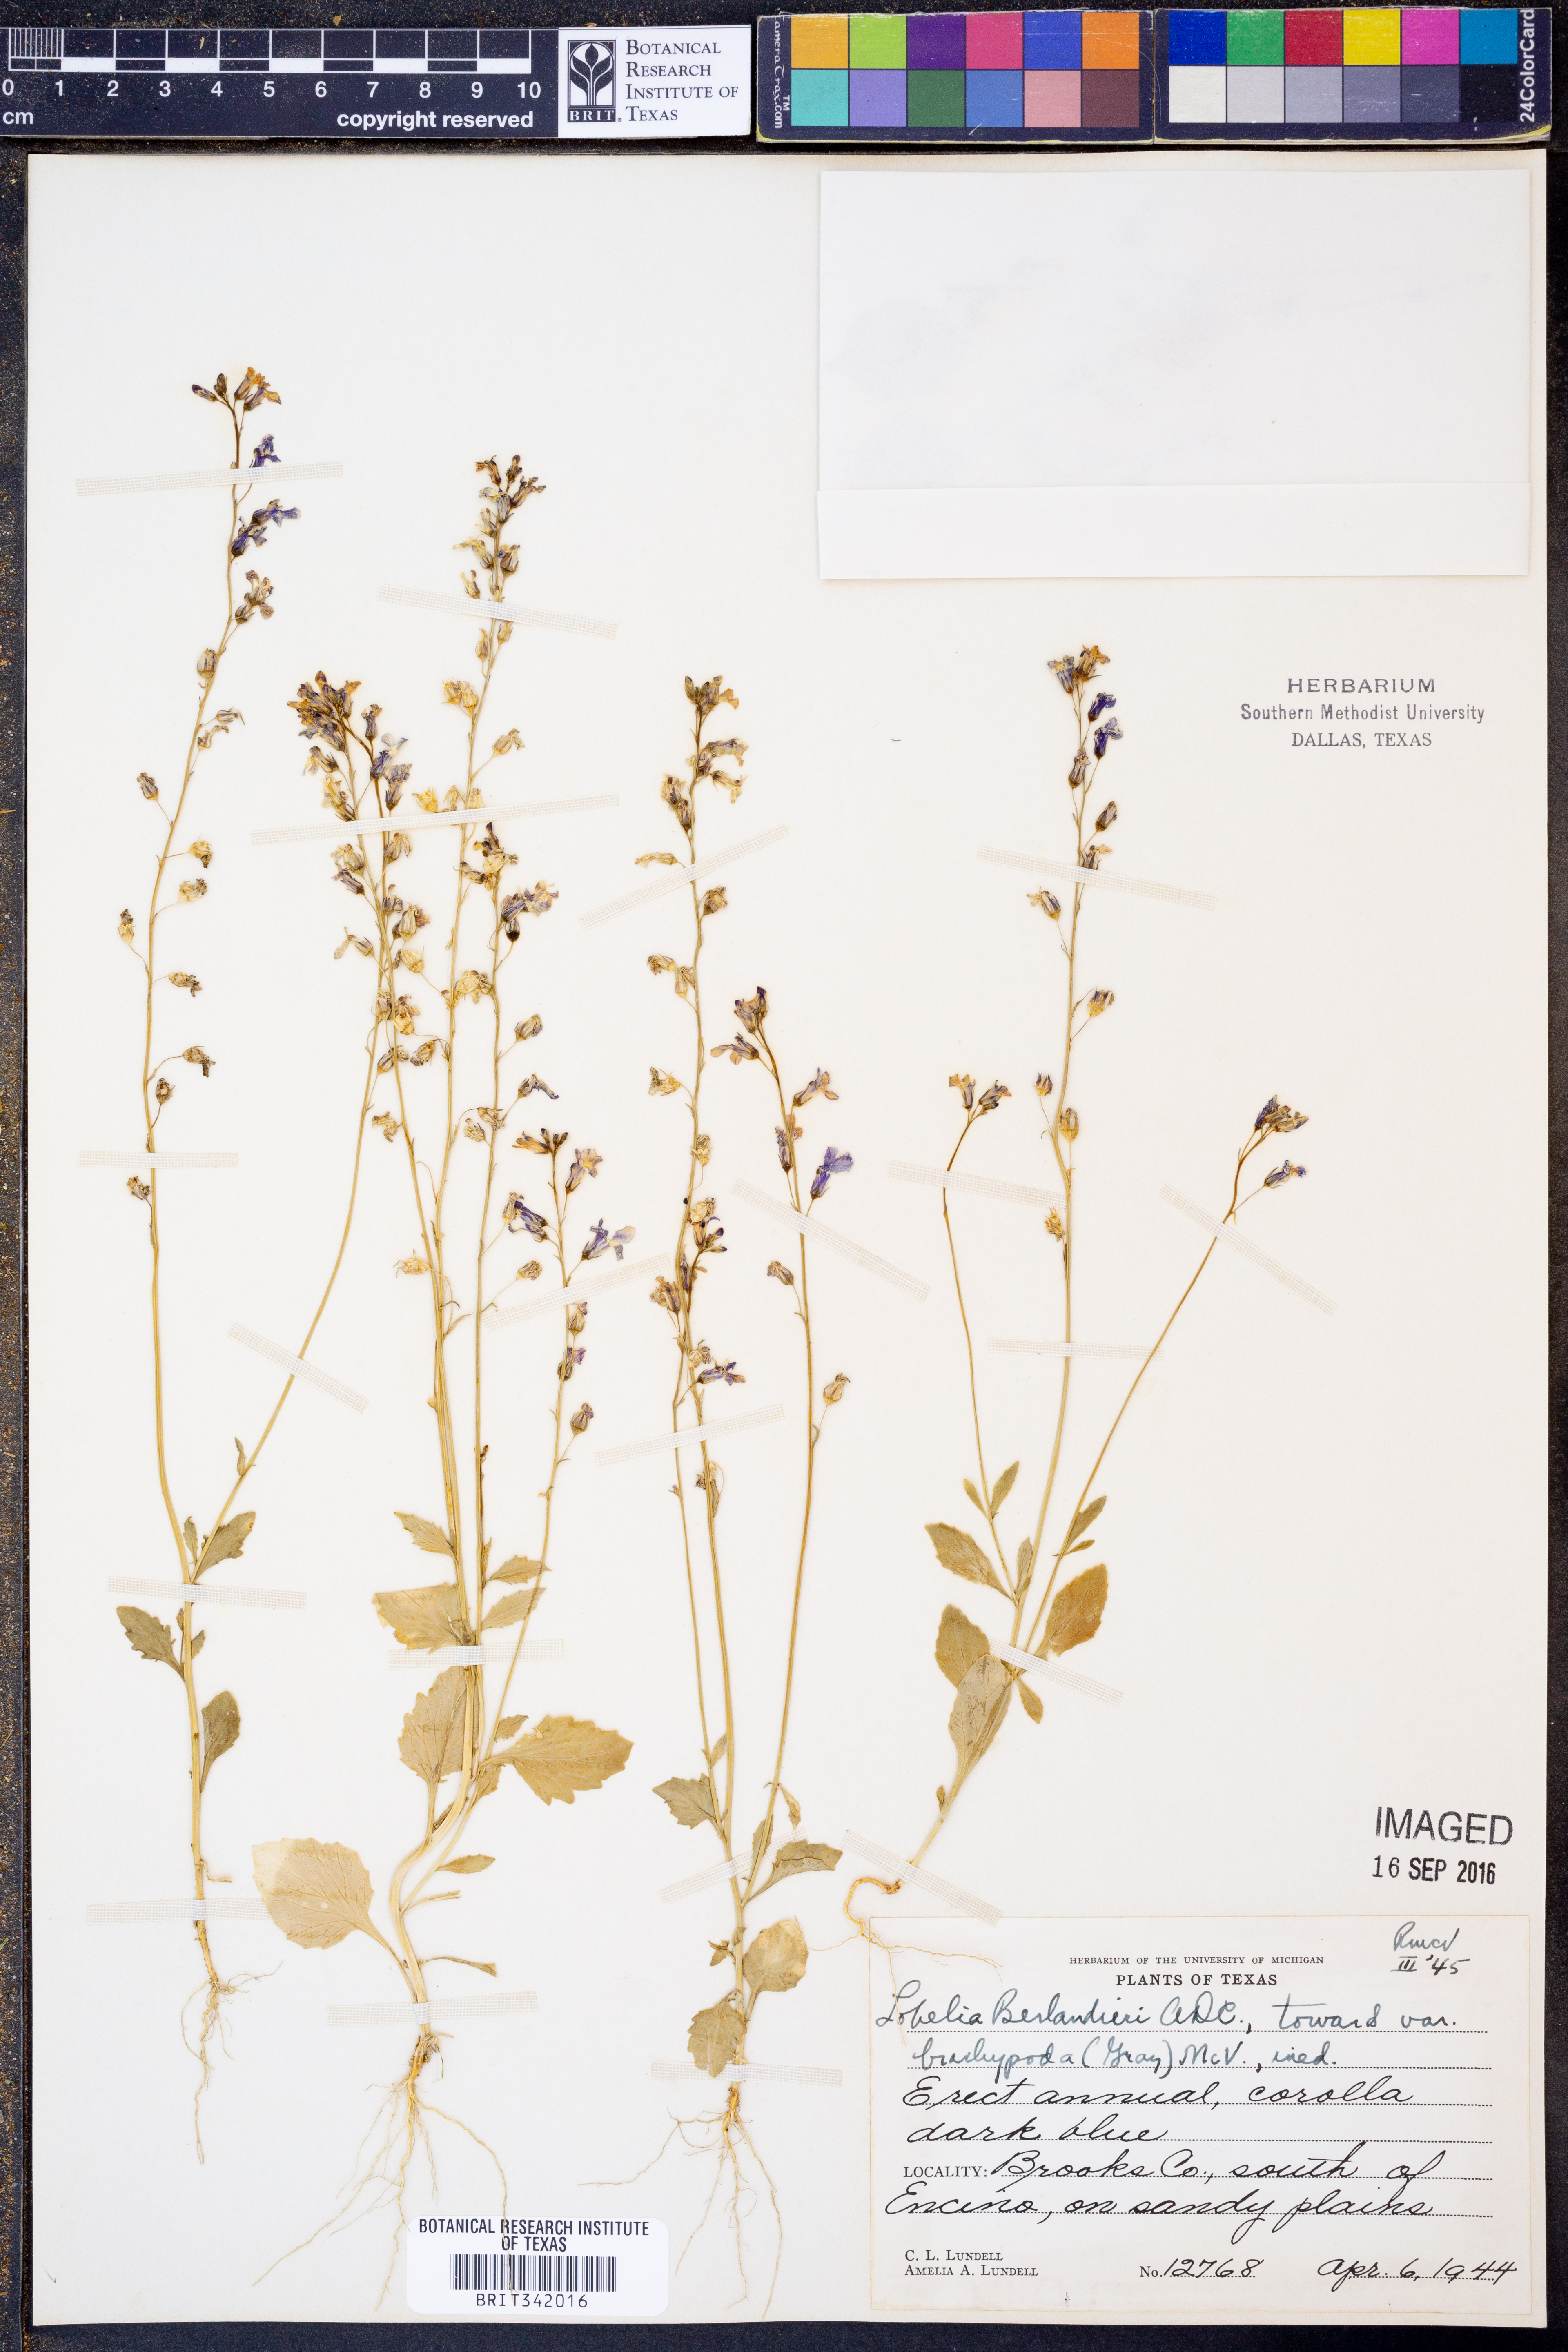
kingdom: Plantae
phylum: Tracheophyta
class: Magnoliopsida
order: Asterales
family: Campanulaceae
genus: Lobelia
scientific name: Lobelia berlandieri
